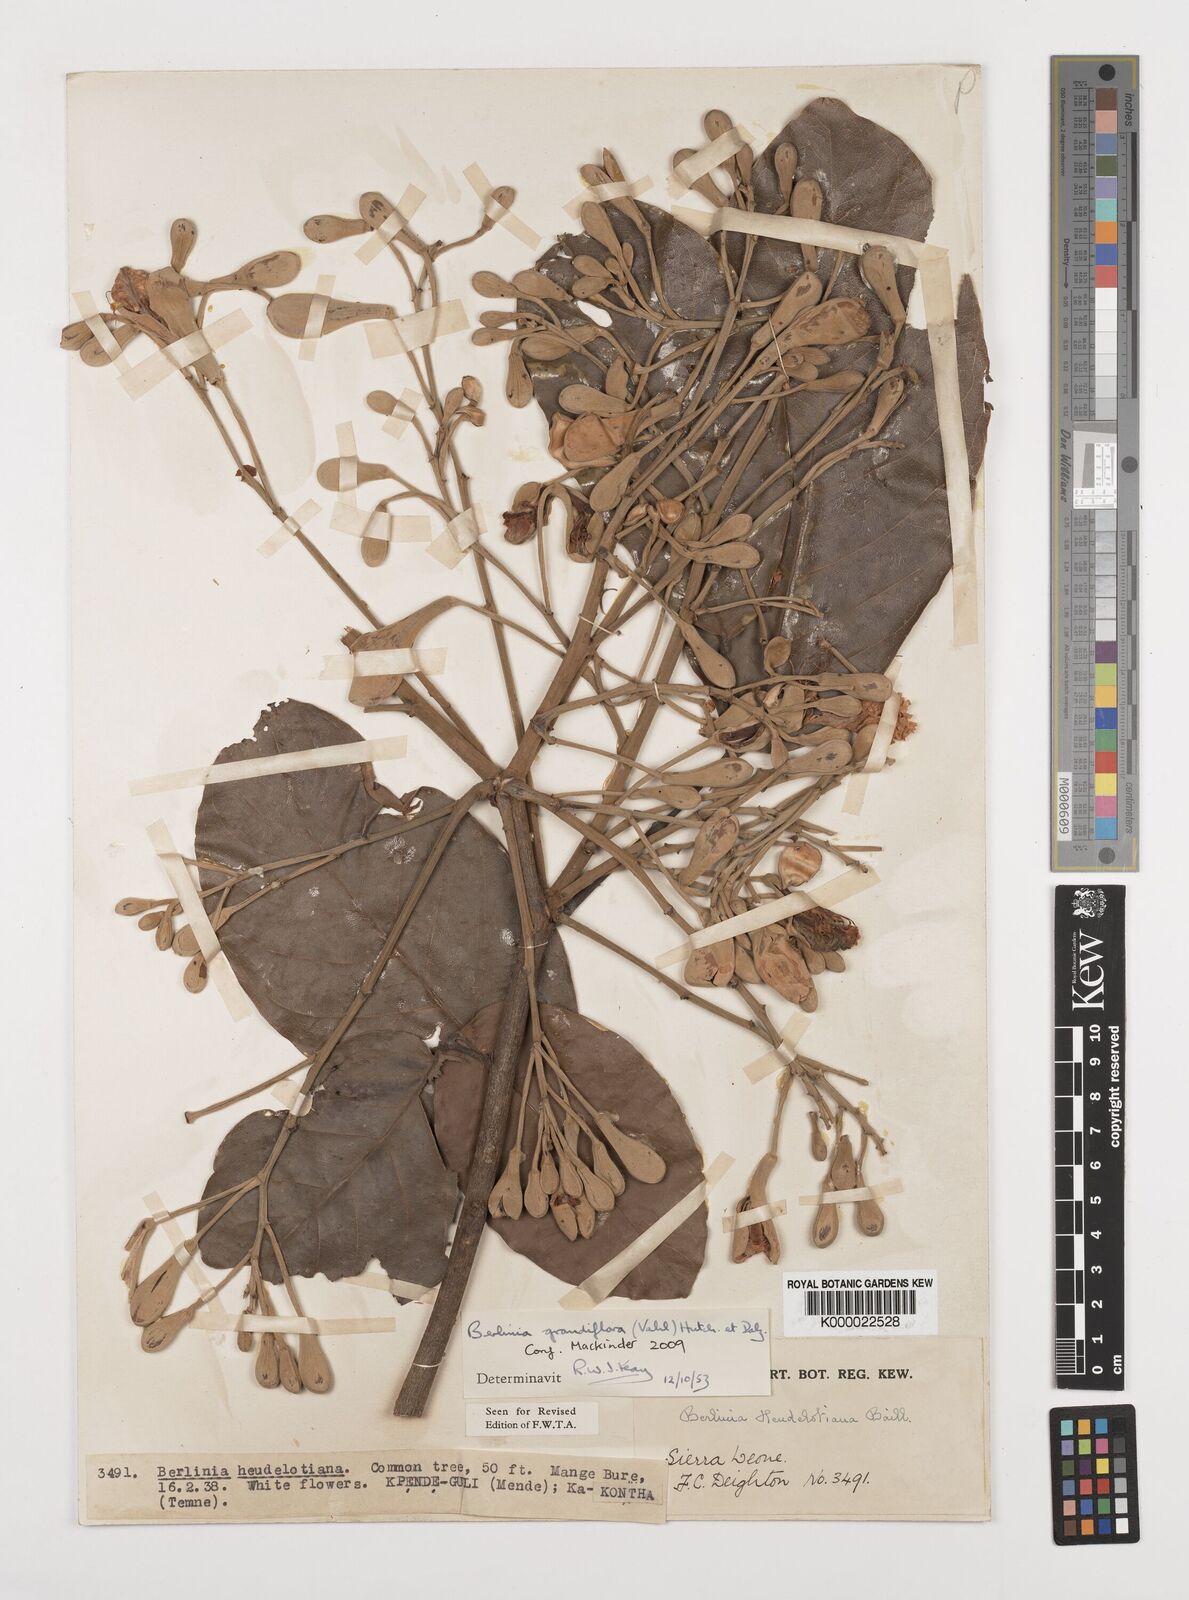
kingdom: Plantae
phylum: Tracheophyta
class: Magnoliopsida
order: Fabales
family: Fabaceae
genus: Berlinia
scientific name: Berlinia grandiflora
